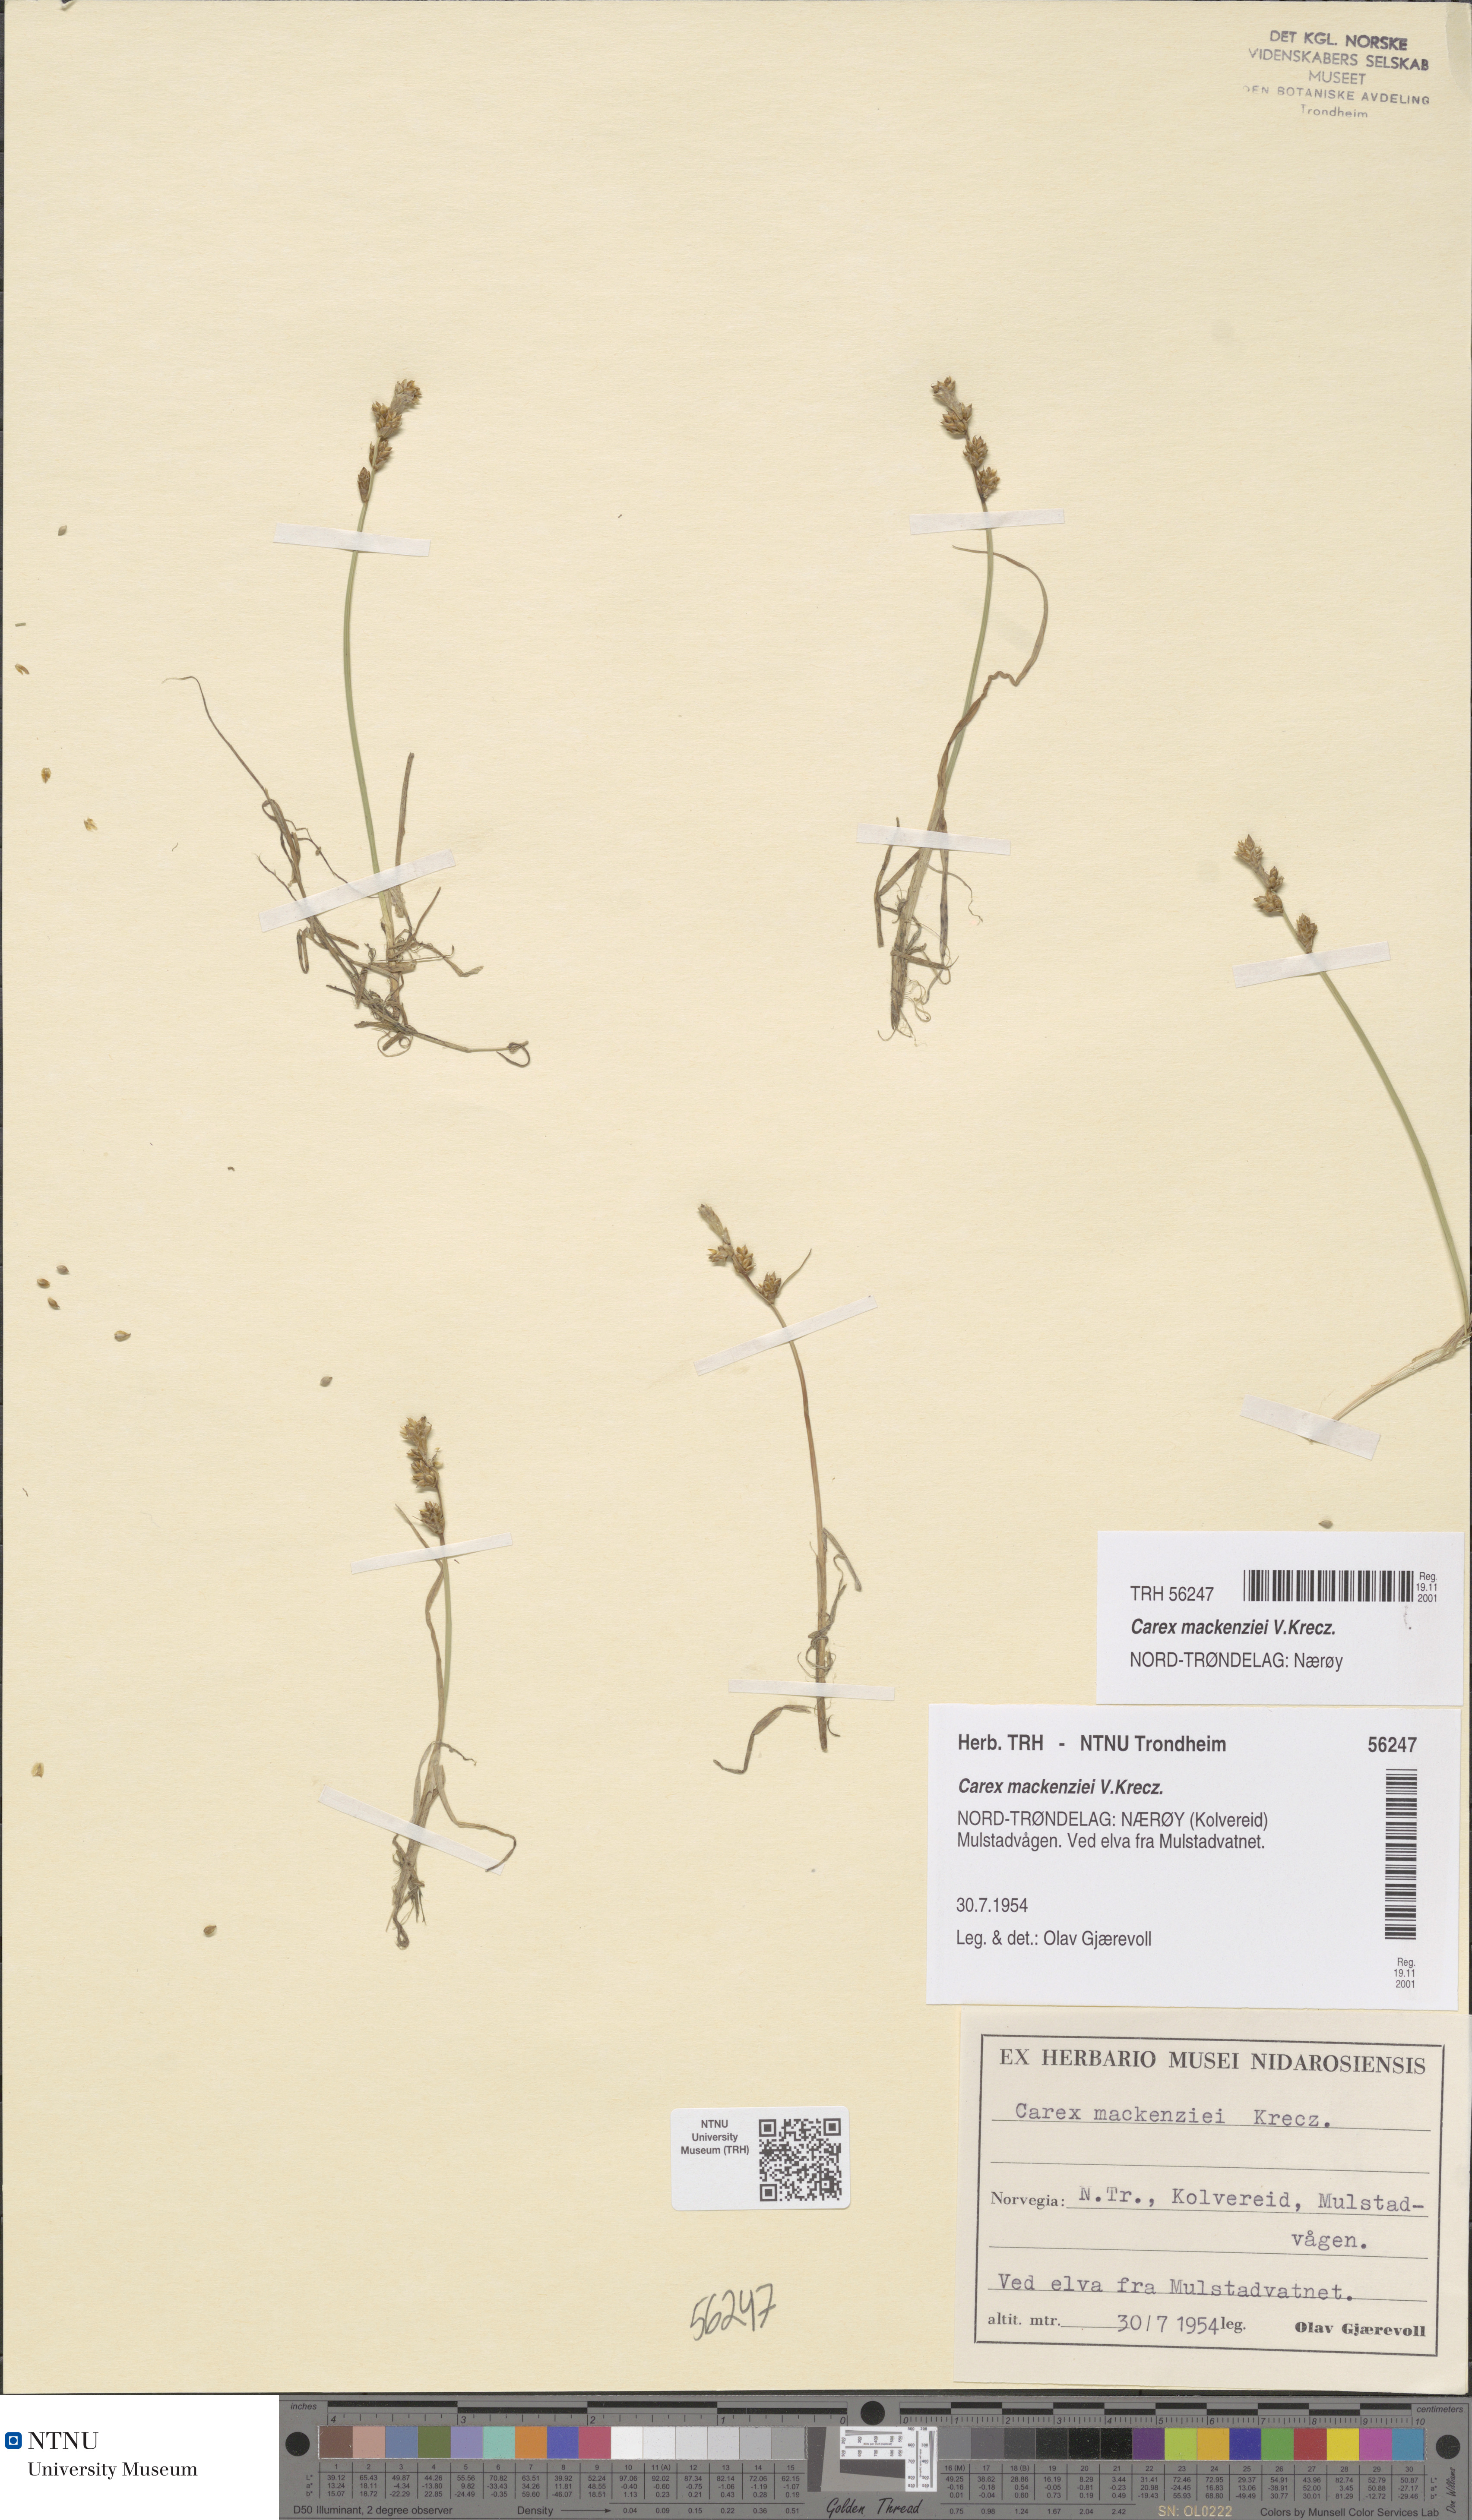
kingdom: Plantae
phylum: Tracheophyta
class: Liliopsida
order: Poales
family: Cyperaceae
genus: Carex
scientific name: Carex mackenziei
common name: Mackenzie's sedge
